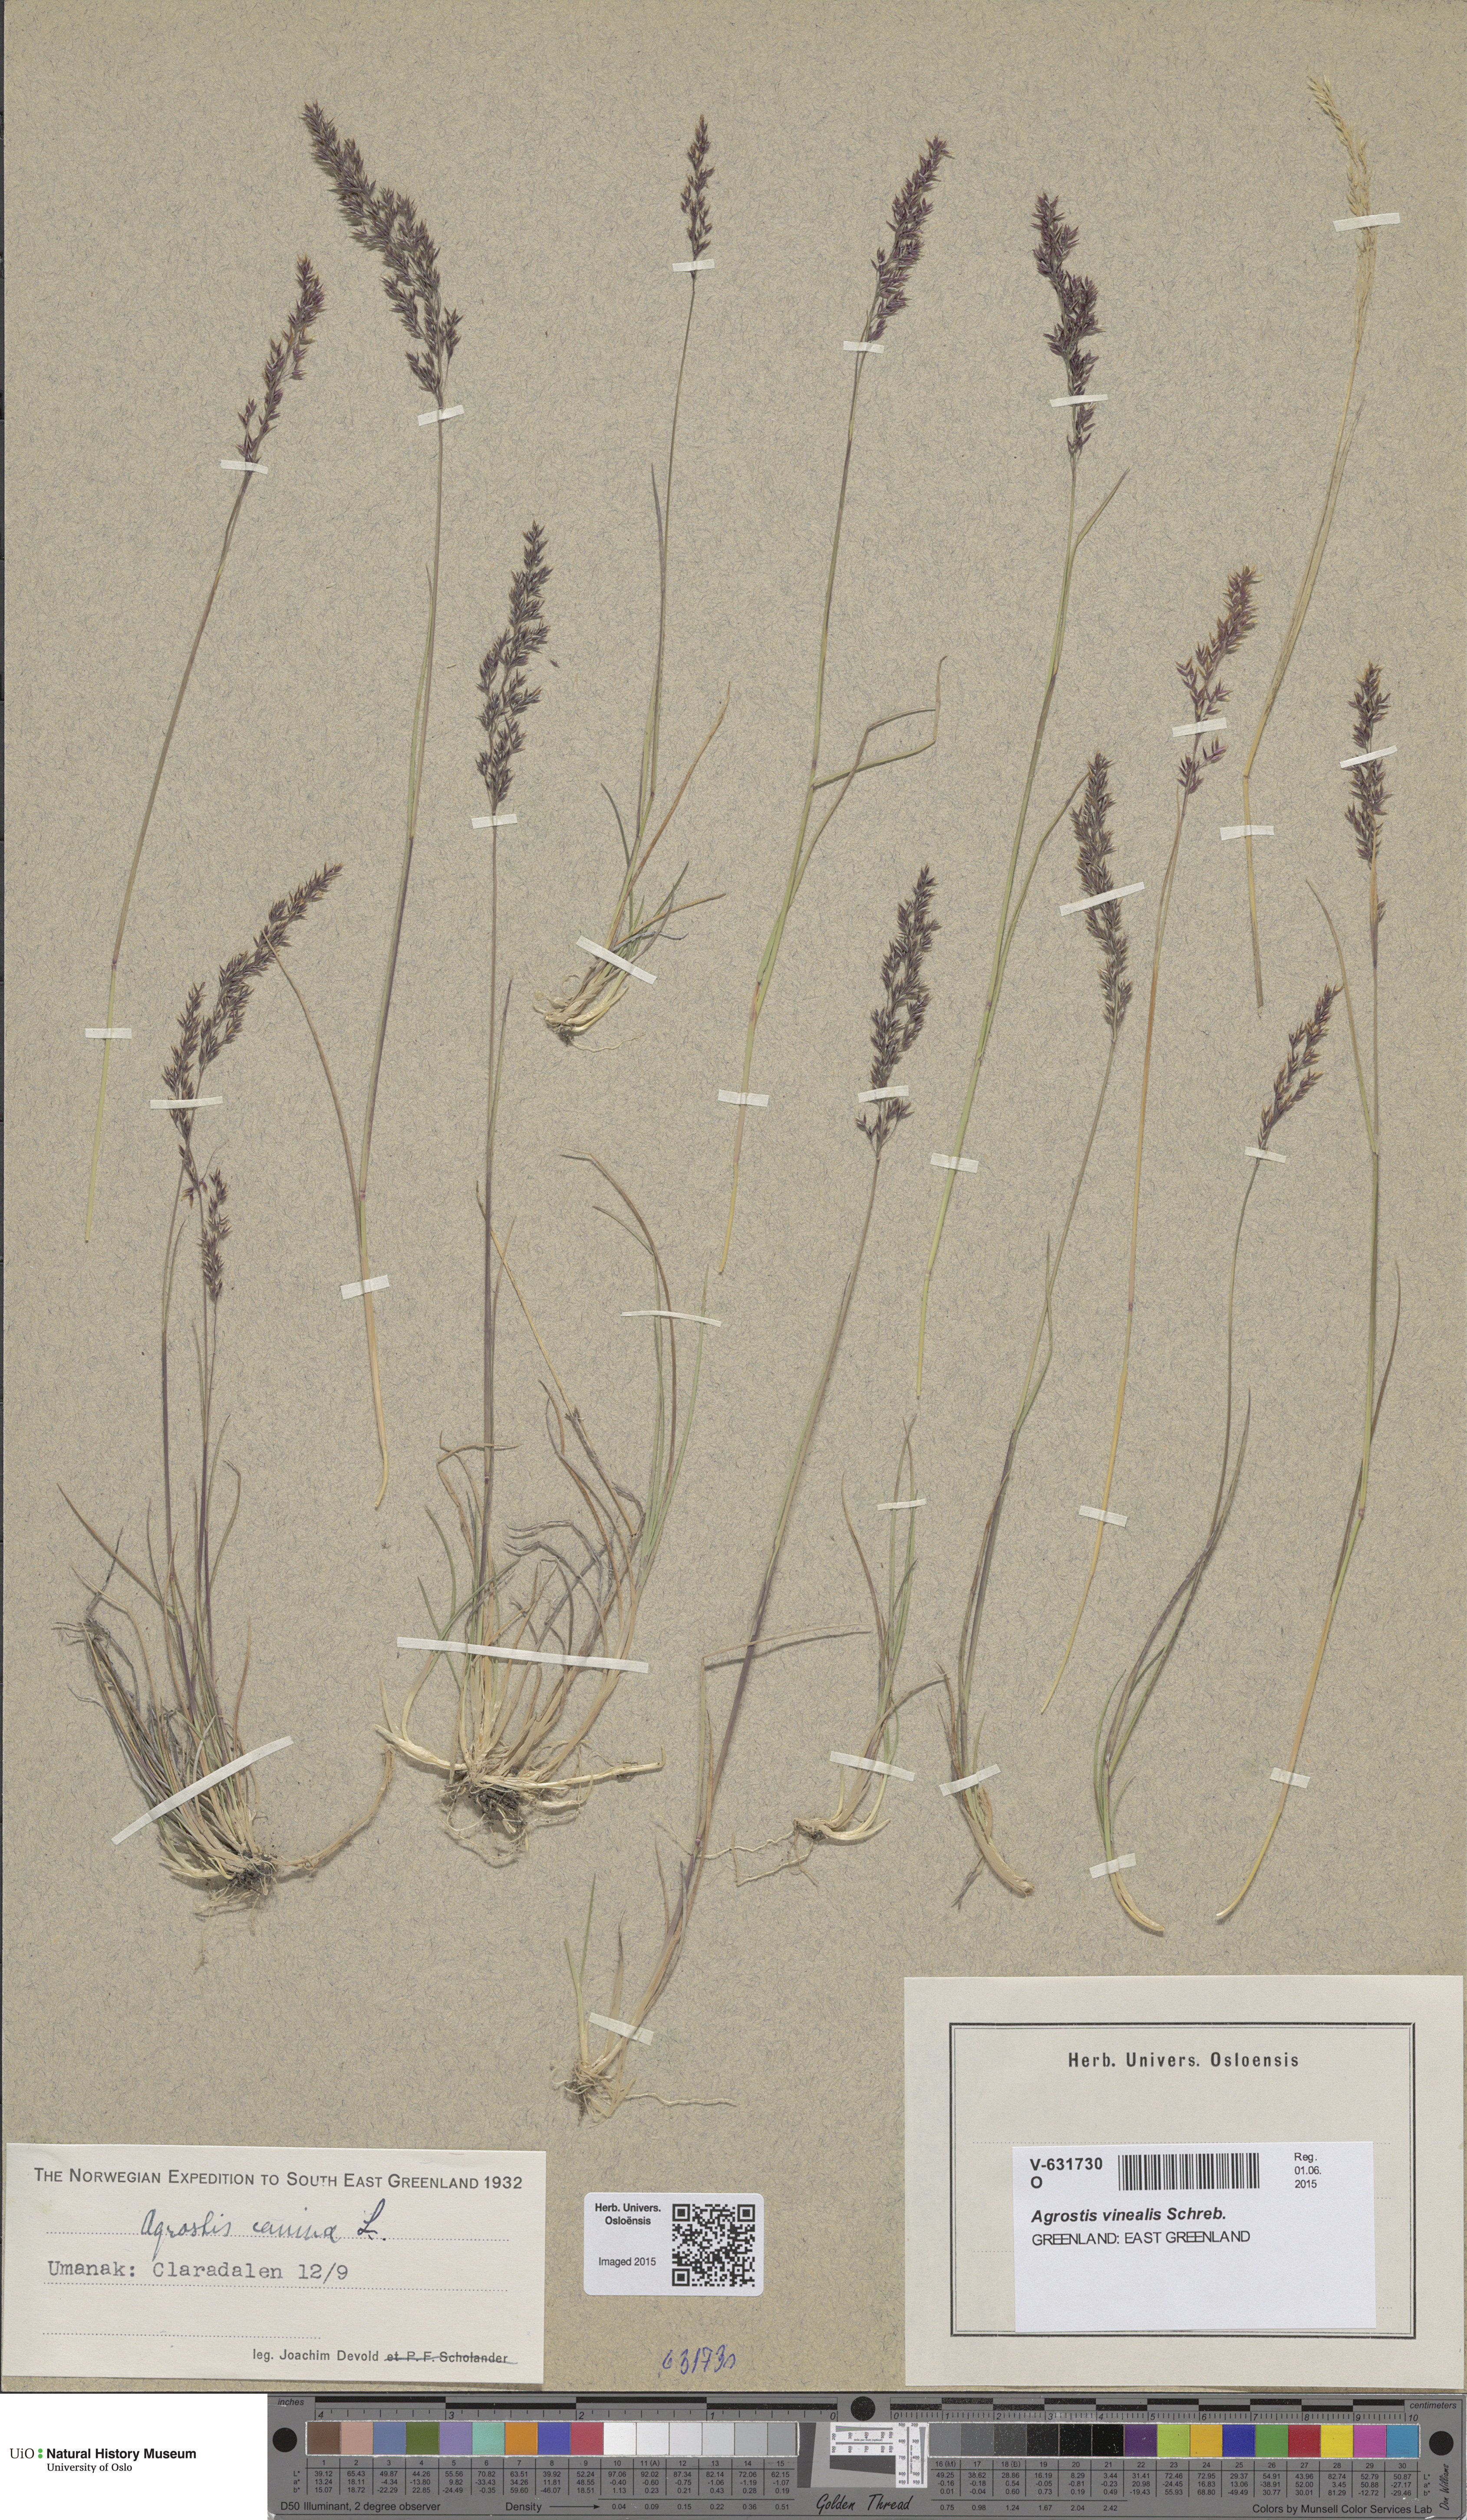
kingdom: Plantae
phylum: Tracheophyta
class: Liliopsida
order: Poales
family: Poaceae
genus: Agrostis
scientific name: Agrostis vinealis
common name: Brown bent
